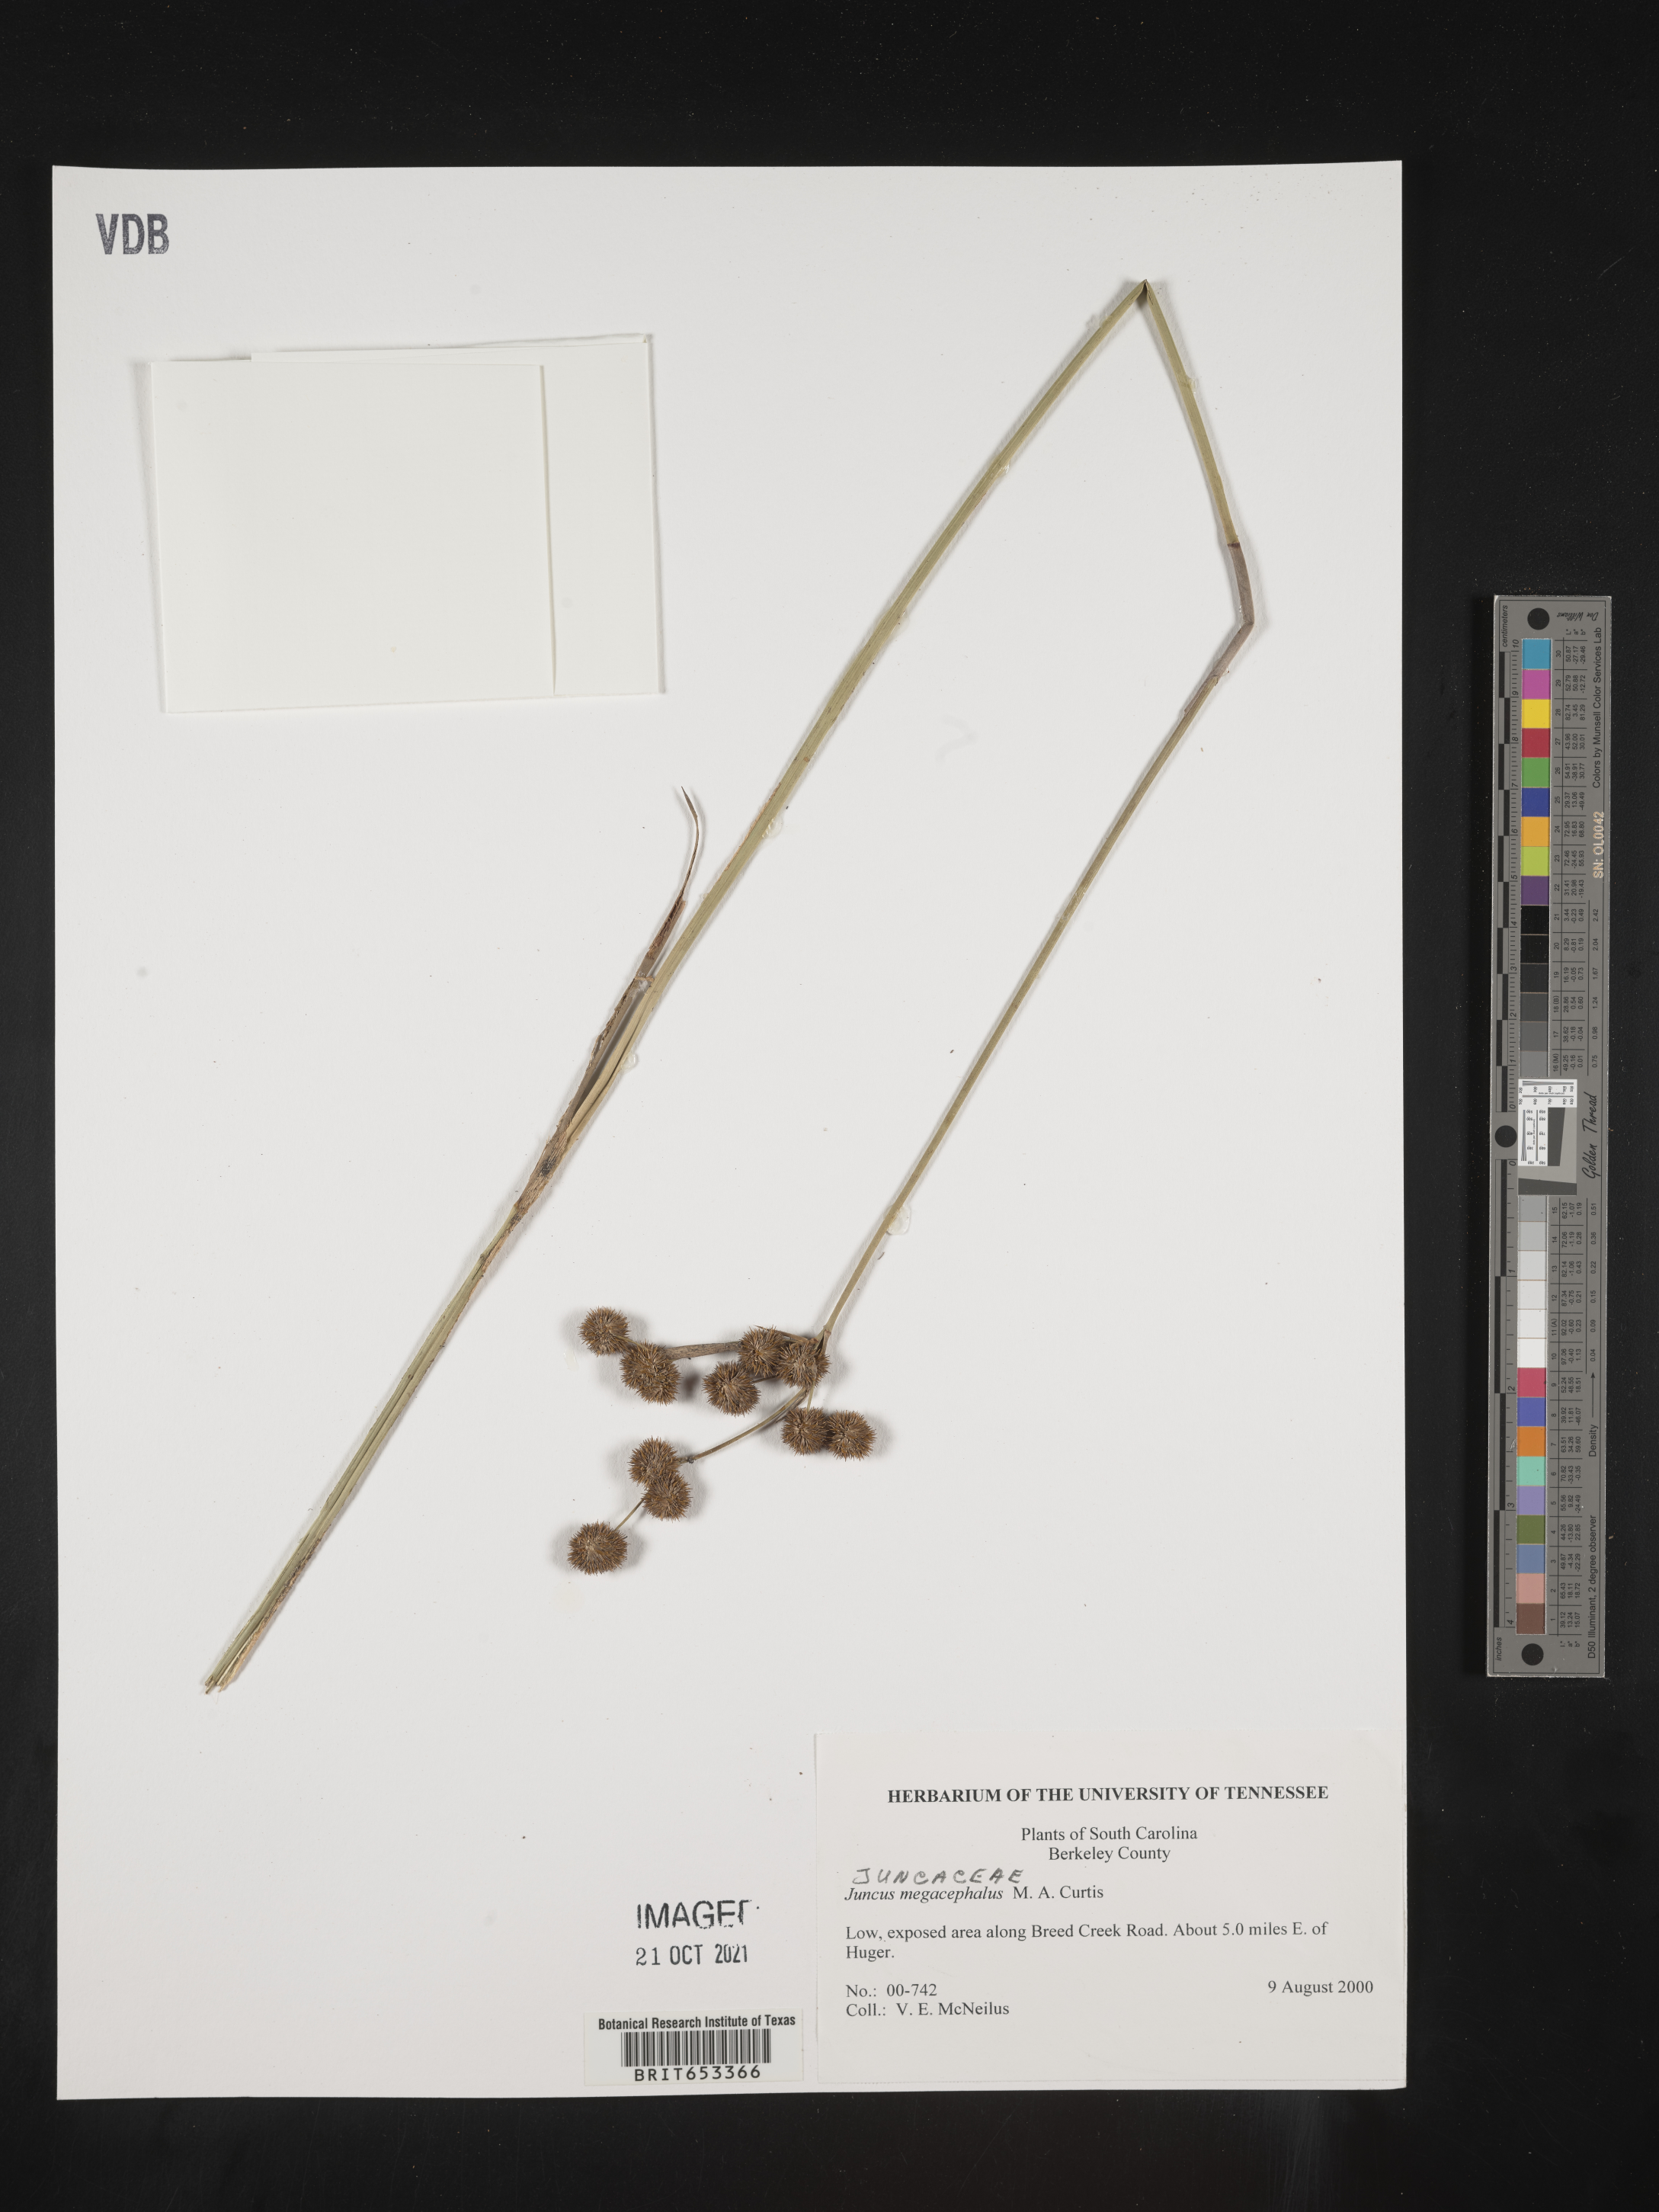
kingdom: Plantae
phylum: Tracheophyta
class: Liliopsida
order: Poales
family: Juncaceae
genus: Juncus
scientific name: Juncus megacephalus
